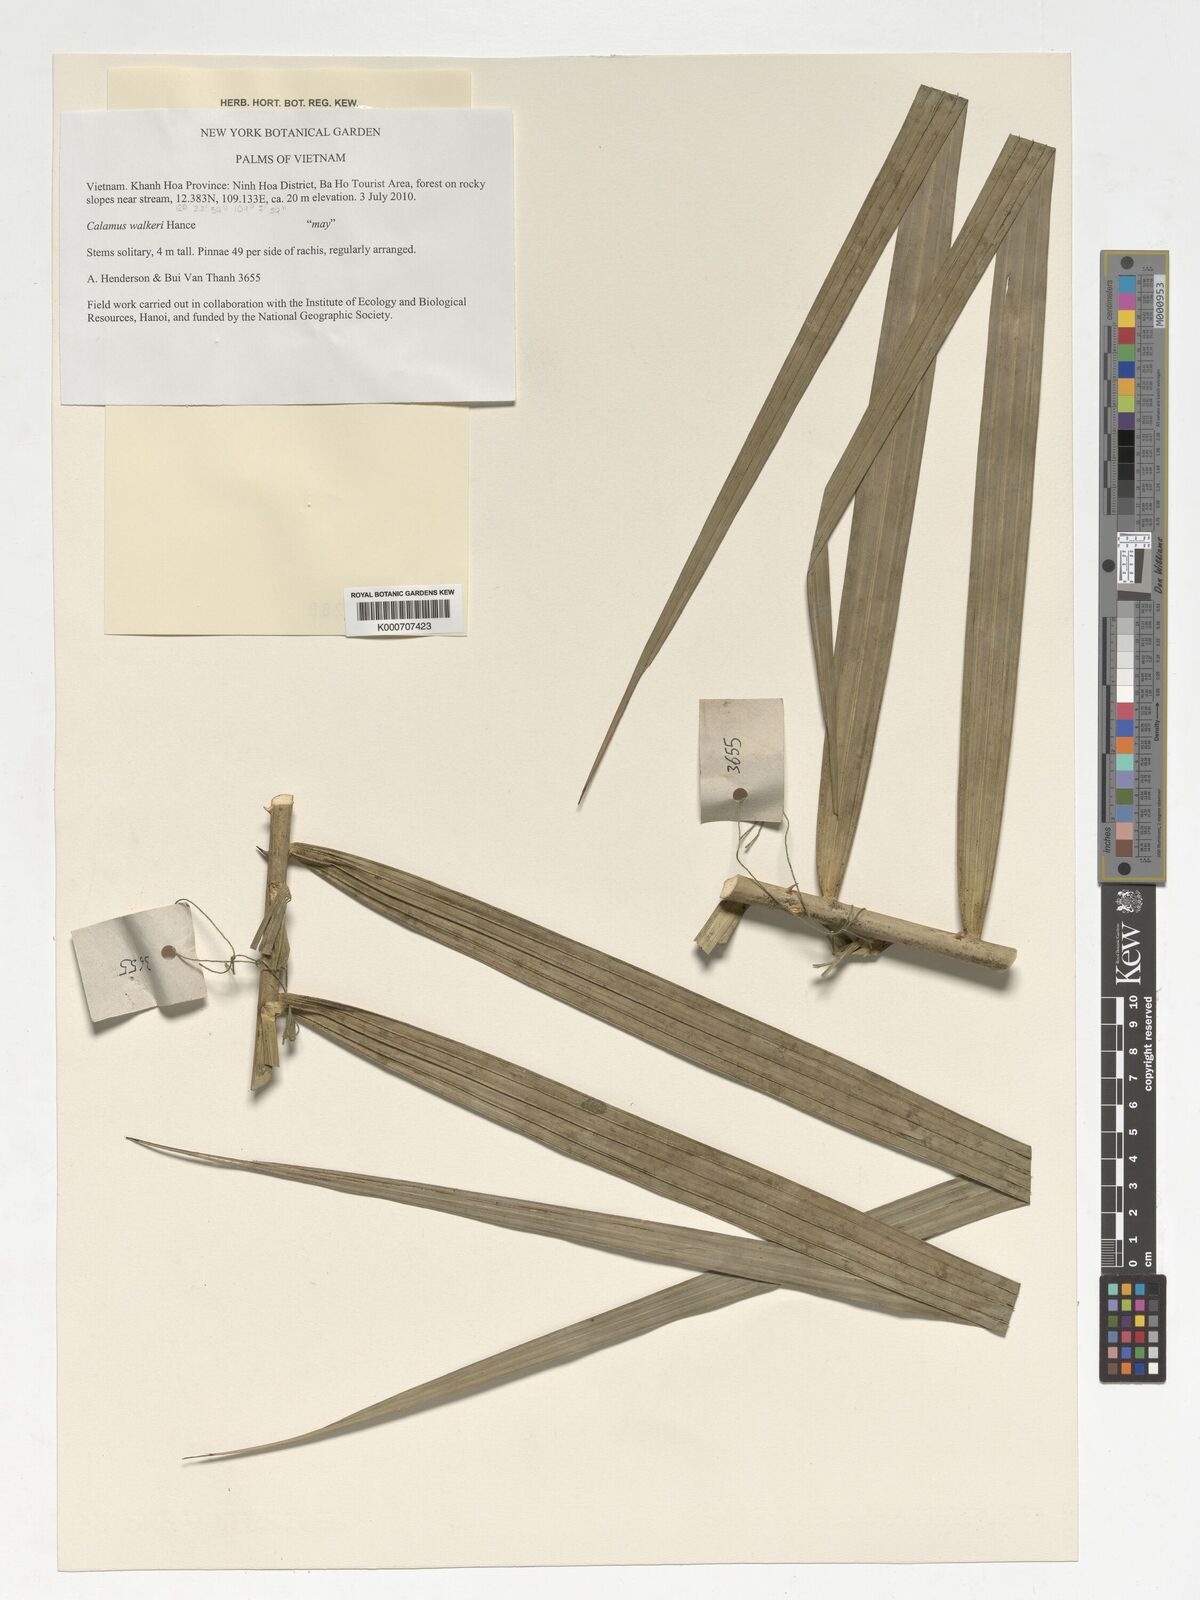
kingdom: Plantae
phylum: Tracheophyta
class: Liliopsida
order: Arecales
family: Arecaceae
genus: Calamus
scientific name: Calamus walkeri
